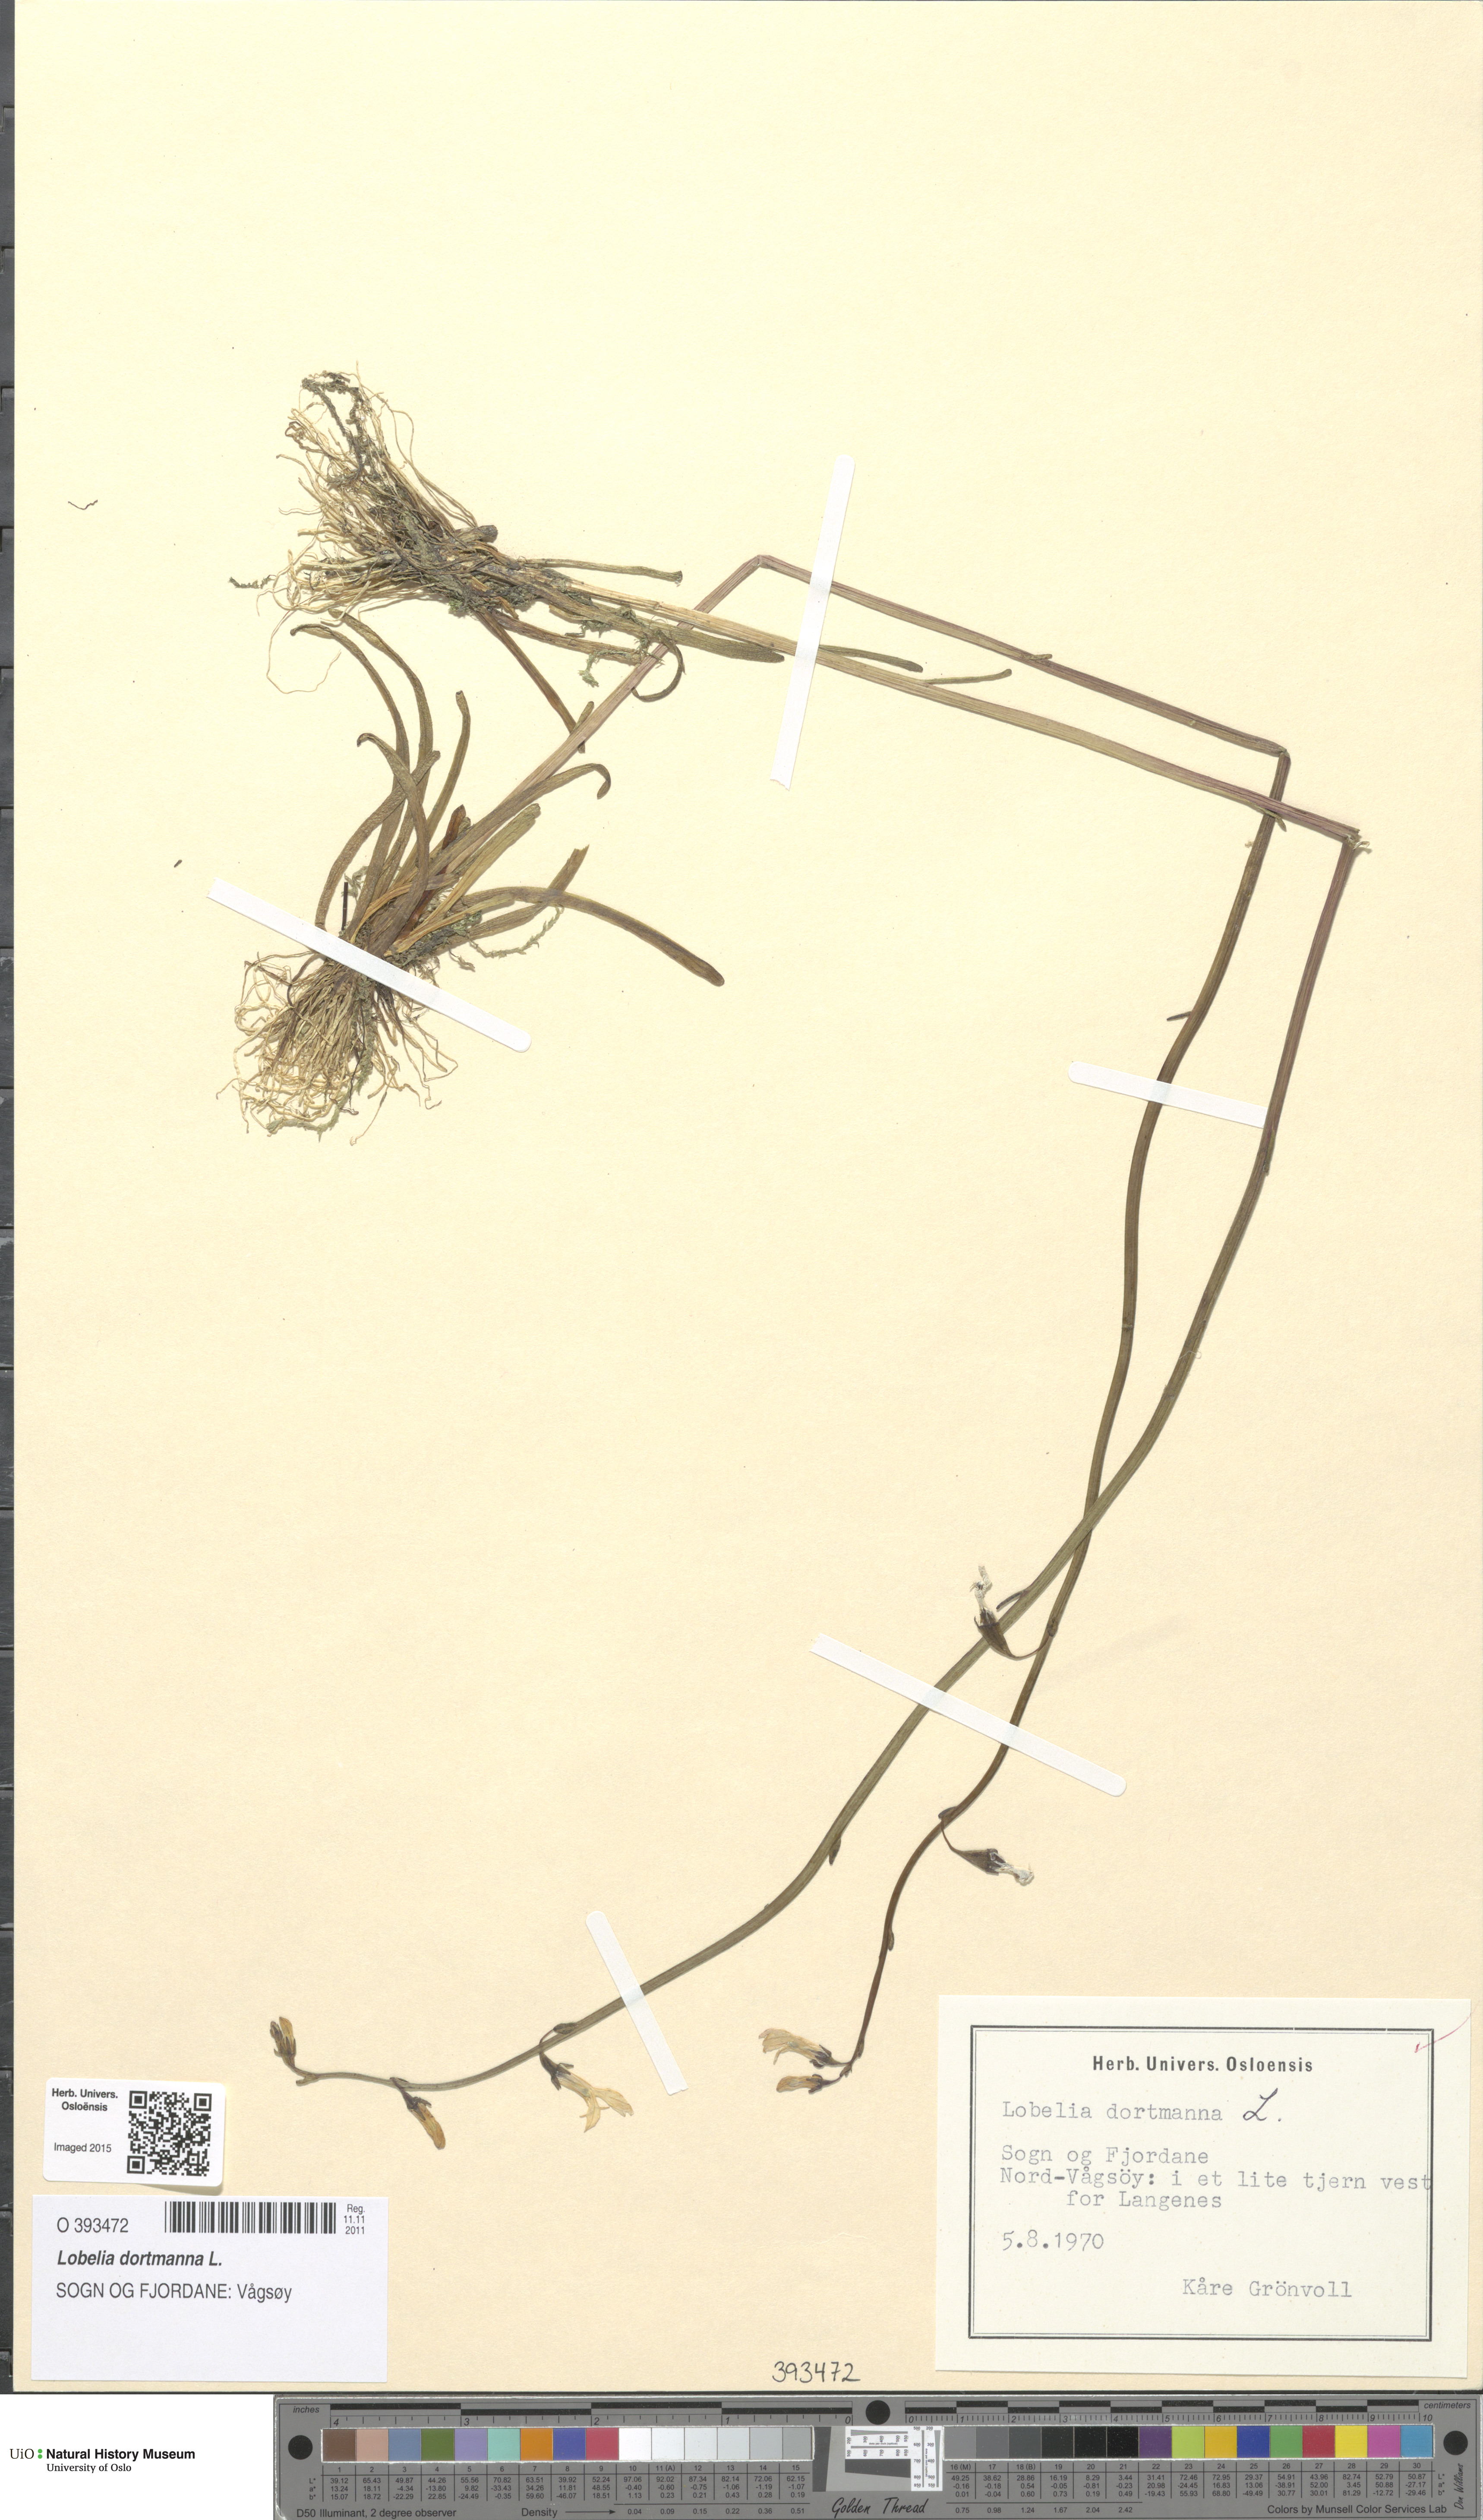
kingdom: Plantae
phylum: Tracheophyta
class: Magnoliopsida
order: Asterales
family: Campanulaceae
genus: Lobelia
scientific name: Lobelia dortmanna
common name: Water lobelia
